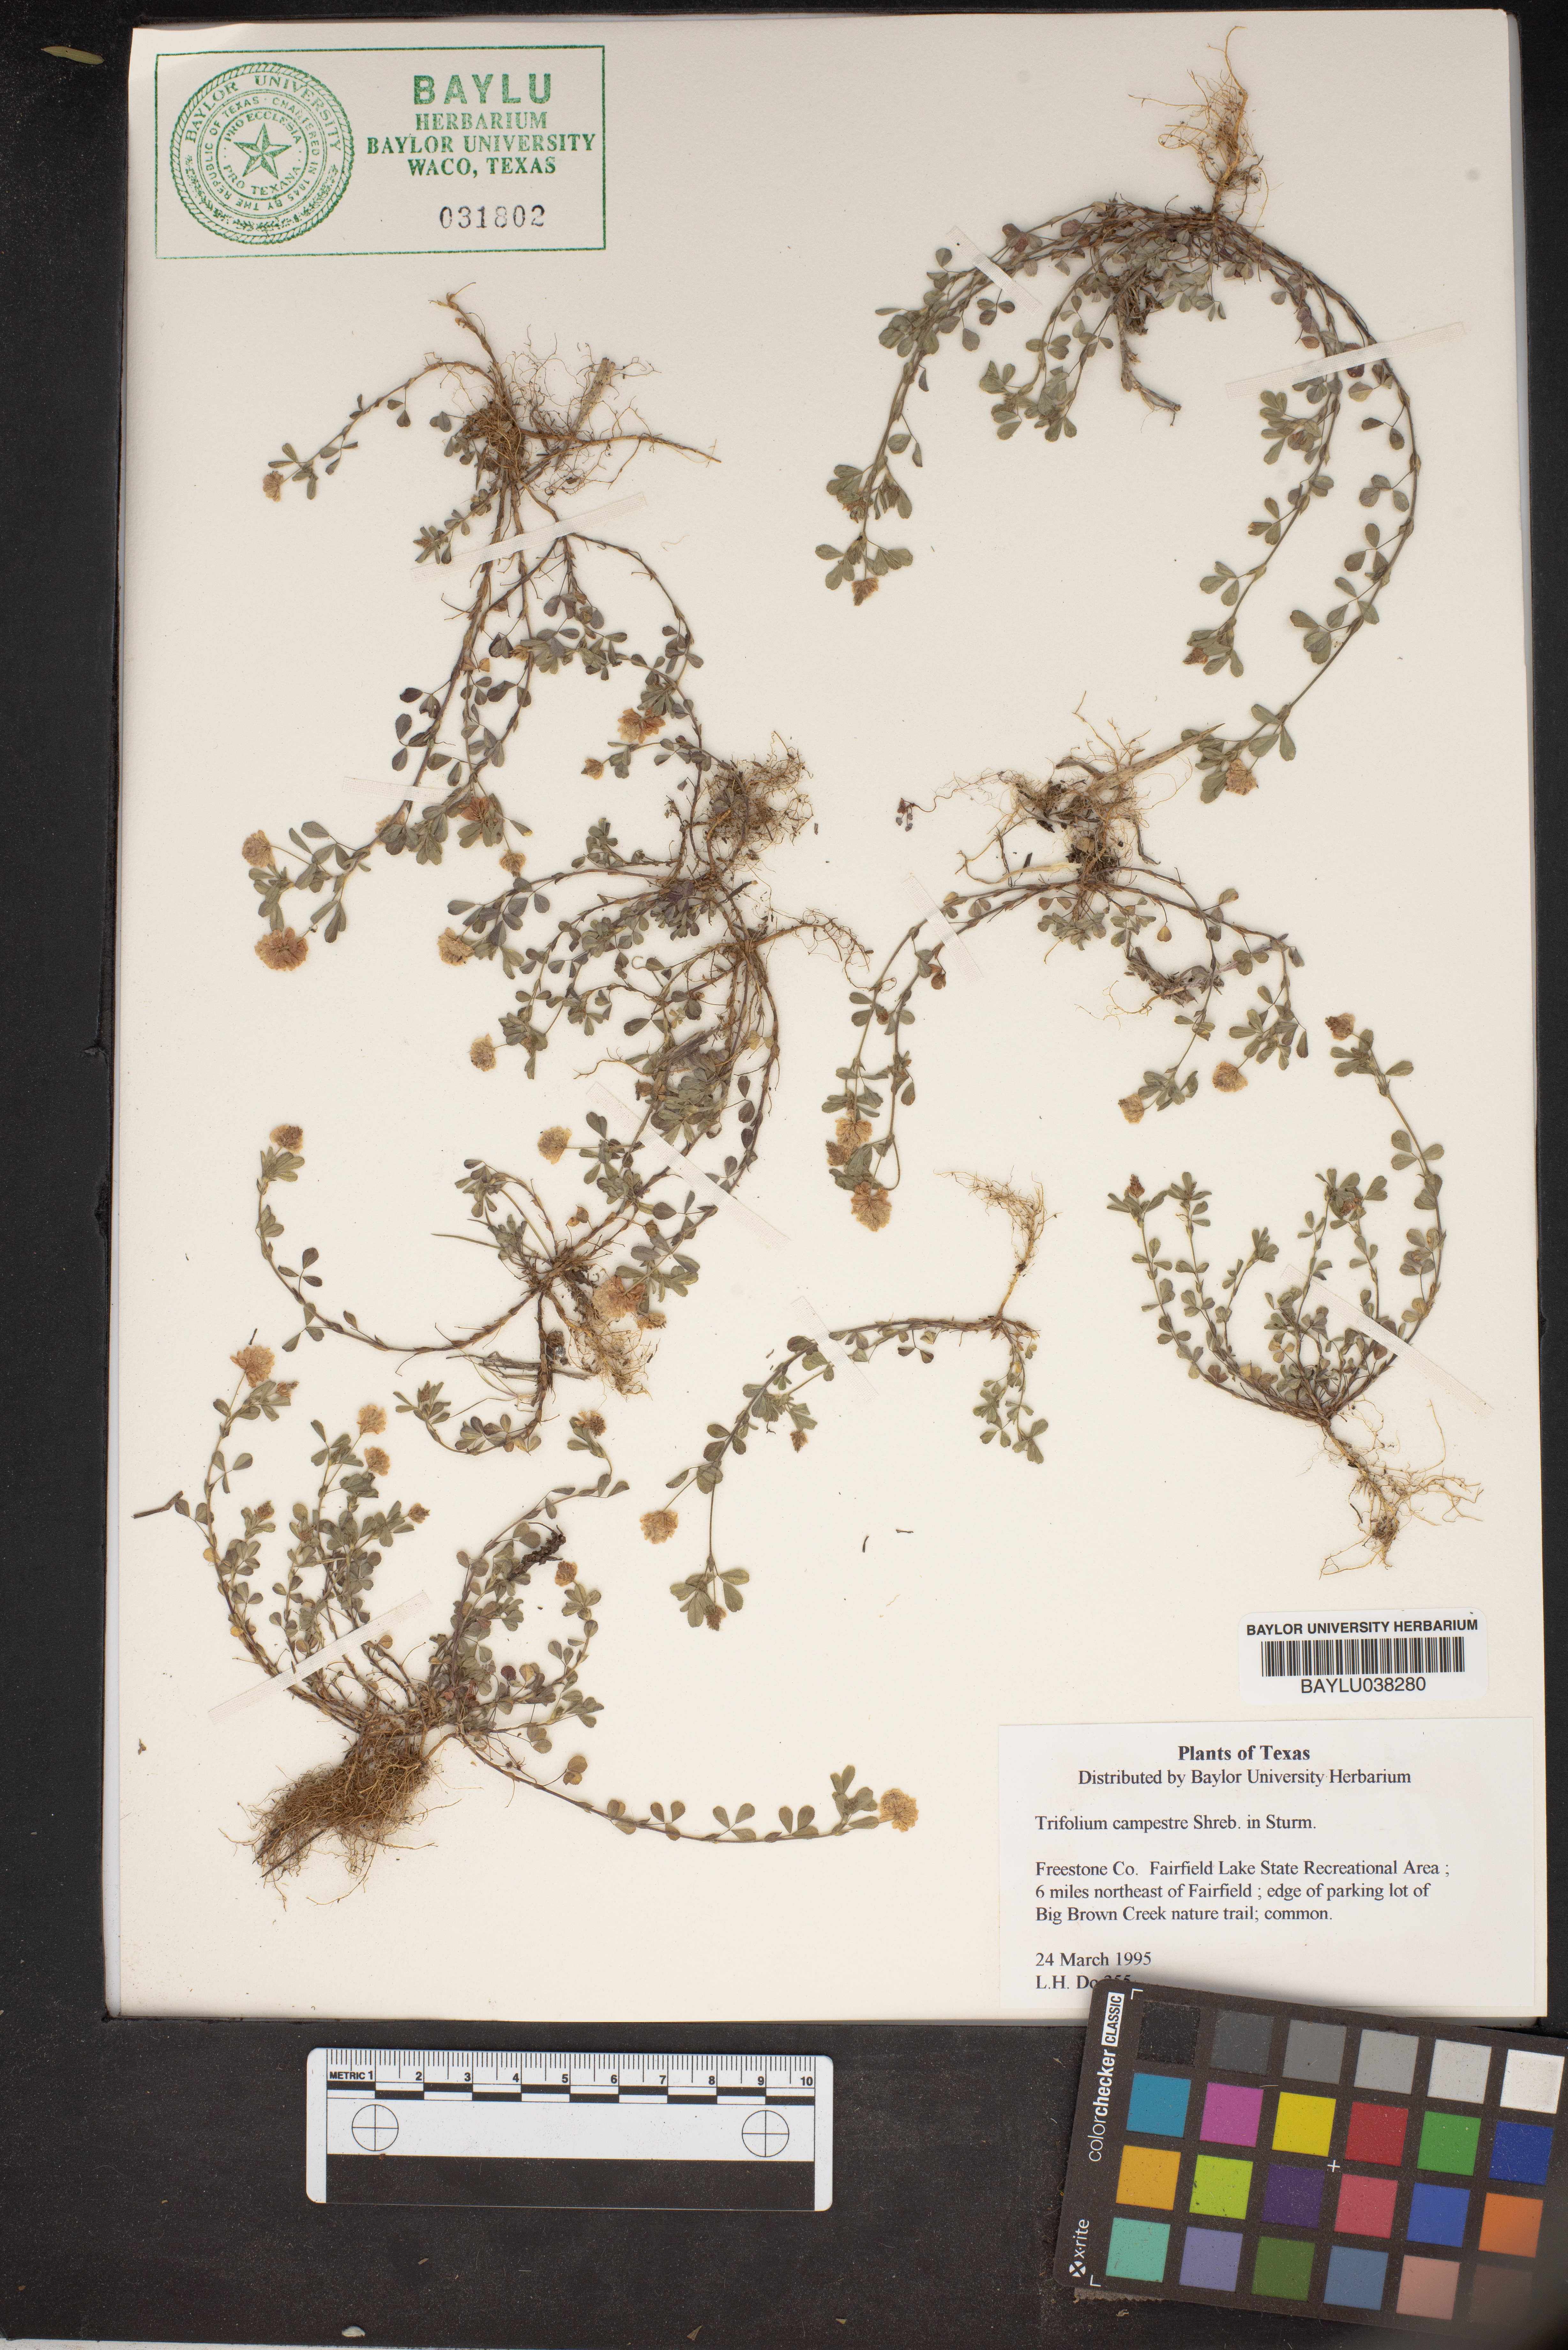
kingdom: Plantae
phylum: Tracheophyta
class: Magnoliopsida
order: Fabales
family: Fabaceae
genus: Trifolium
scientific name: Trifolium campestre
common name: Field clover
